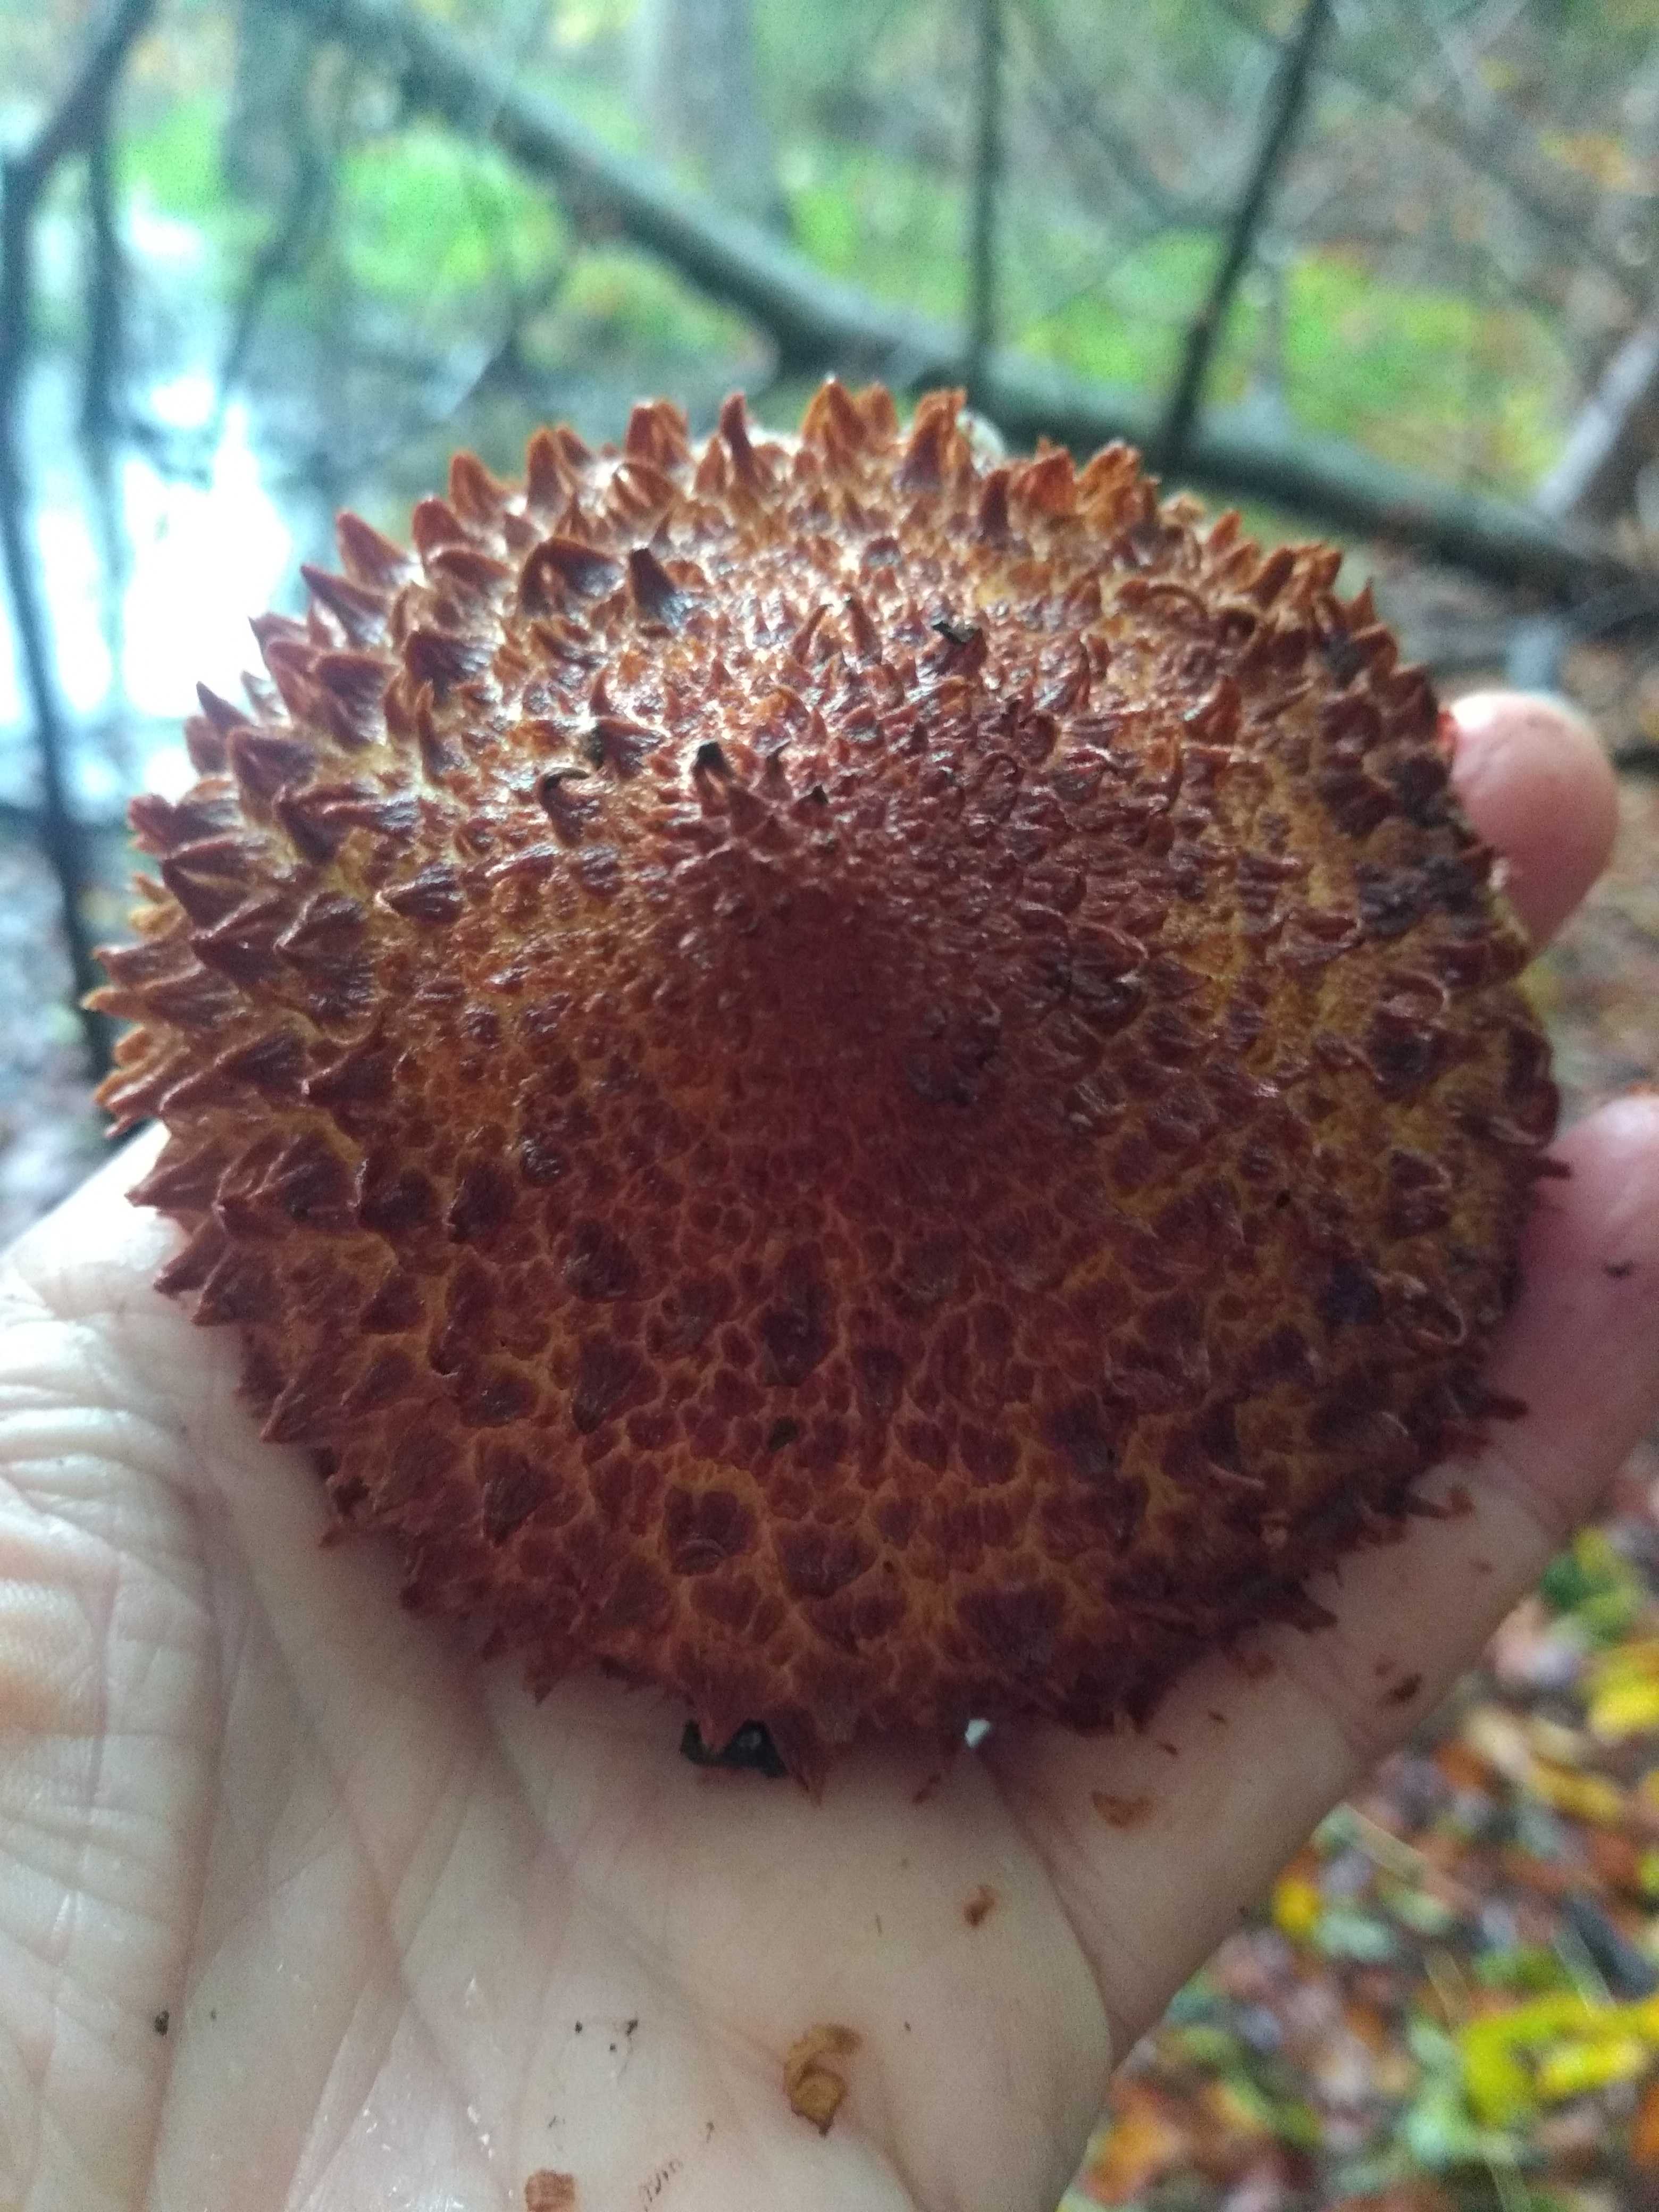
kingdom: Fungi
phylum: Basidiomycota
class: Agaricomycetes
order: Agaricales
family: Strophariaceae
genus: Pholiota
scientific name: Pholiota squarrosa
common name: krumskællet skælhat
